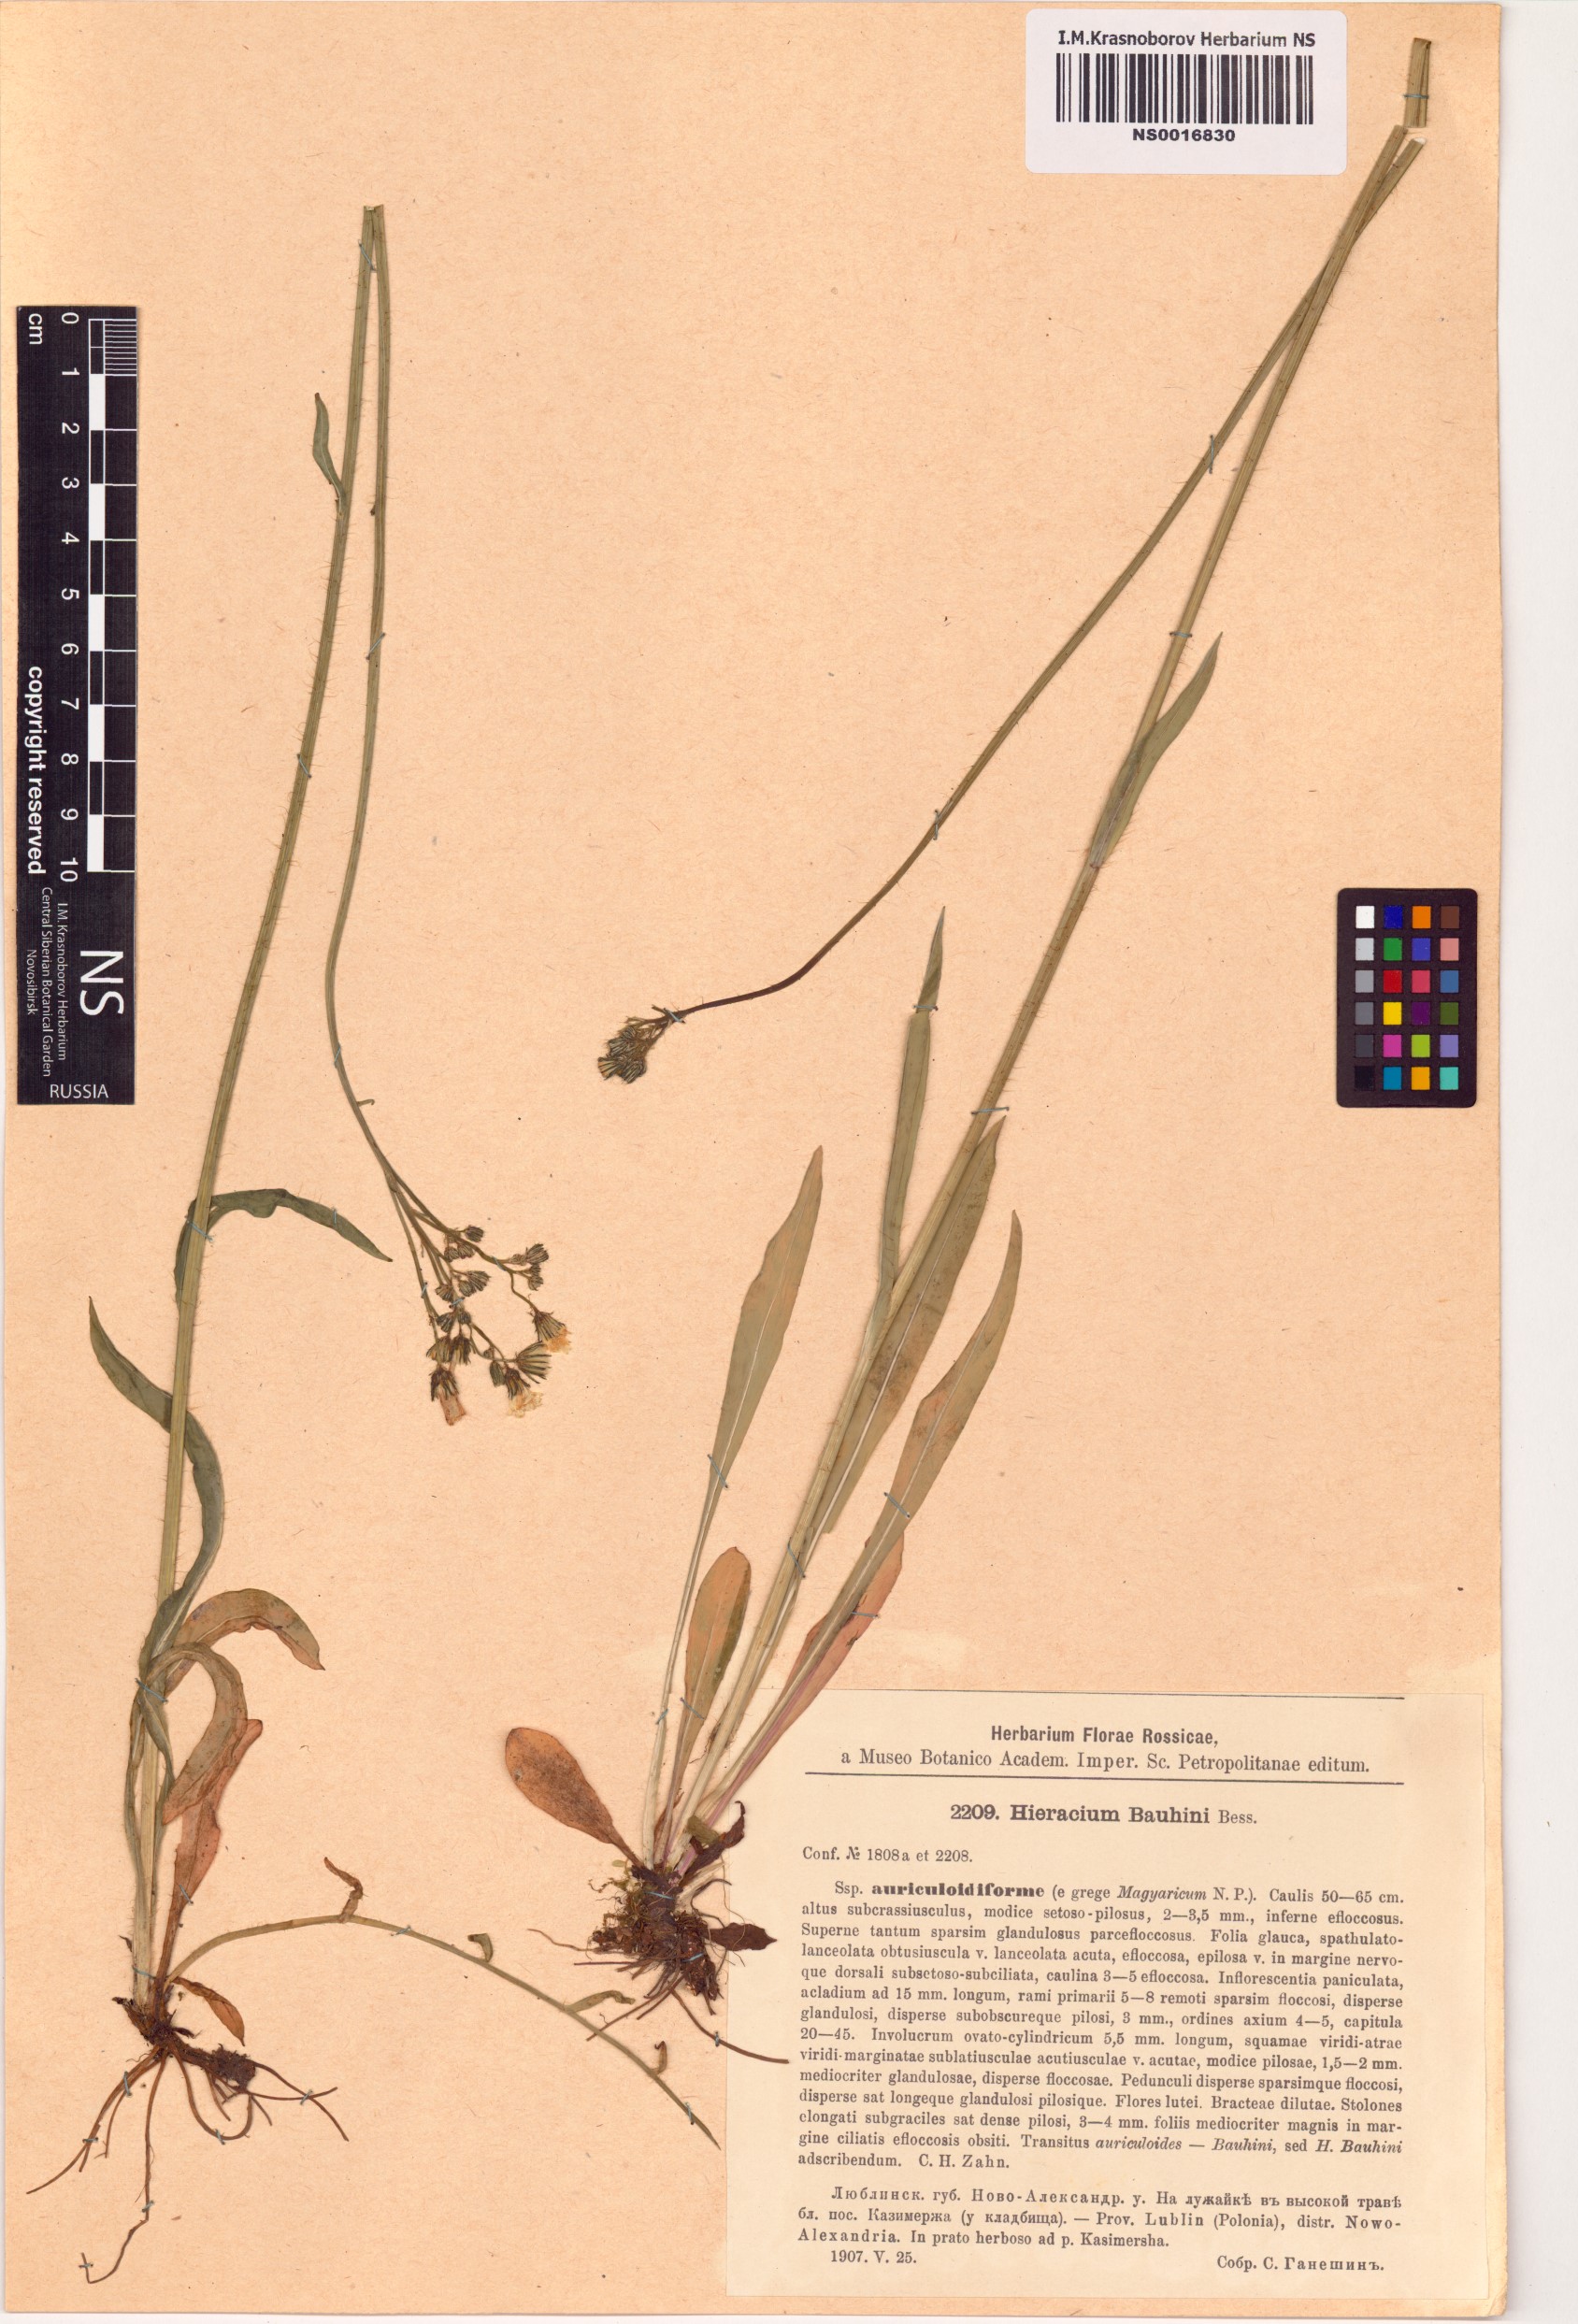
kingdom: Plantae
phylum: Tracheophyta
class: Magnoliopsida
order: Asterales
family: Asteraceae
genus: Pilosella
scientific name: Pilosella bauhini
